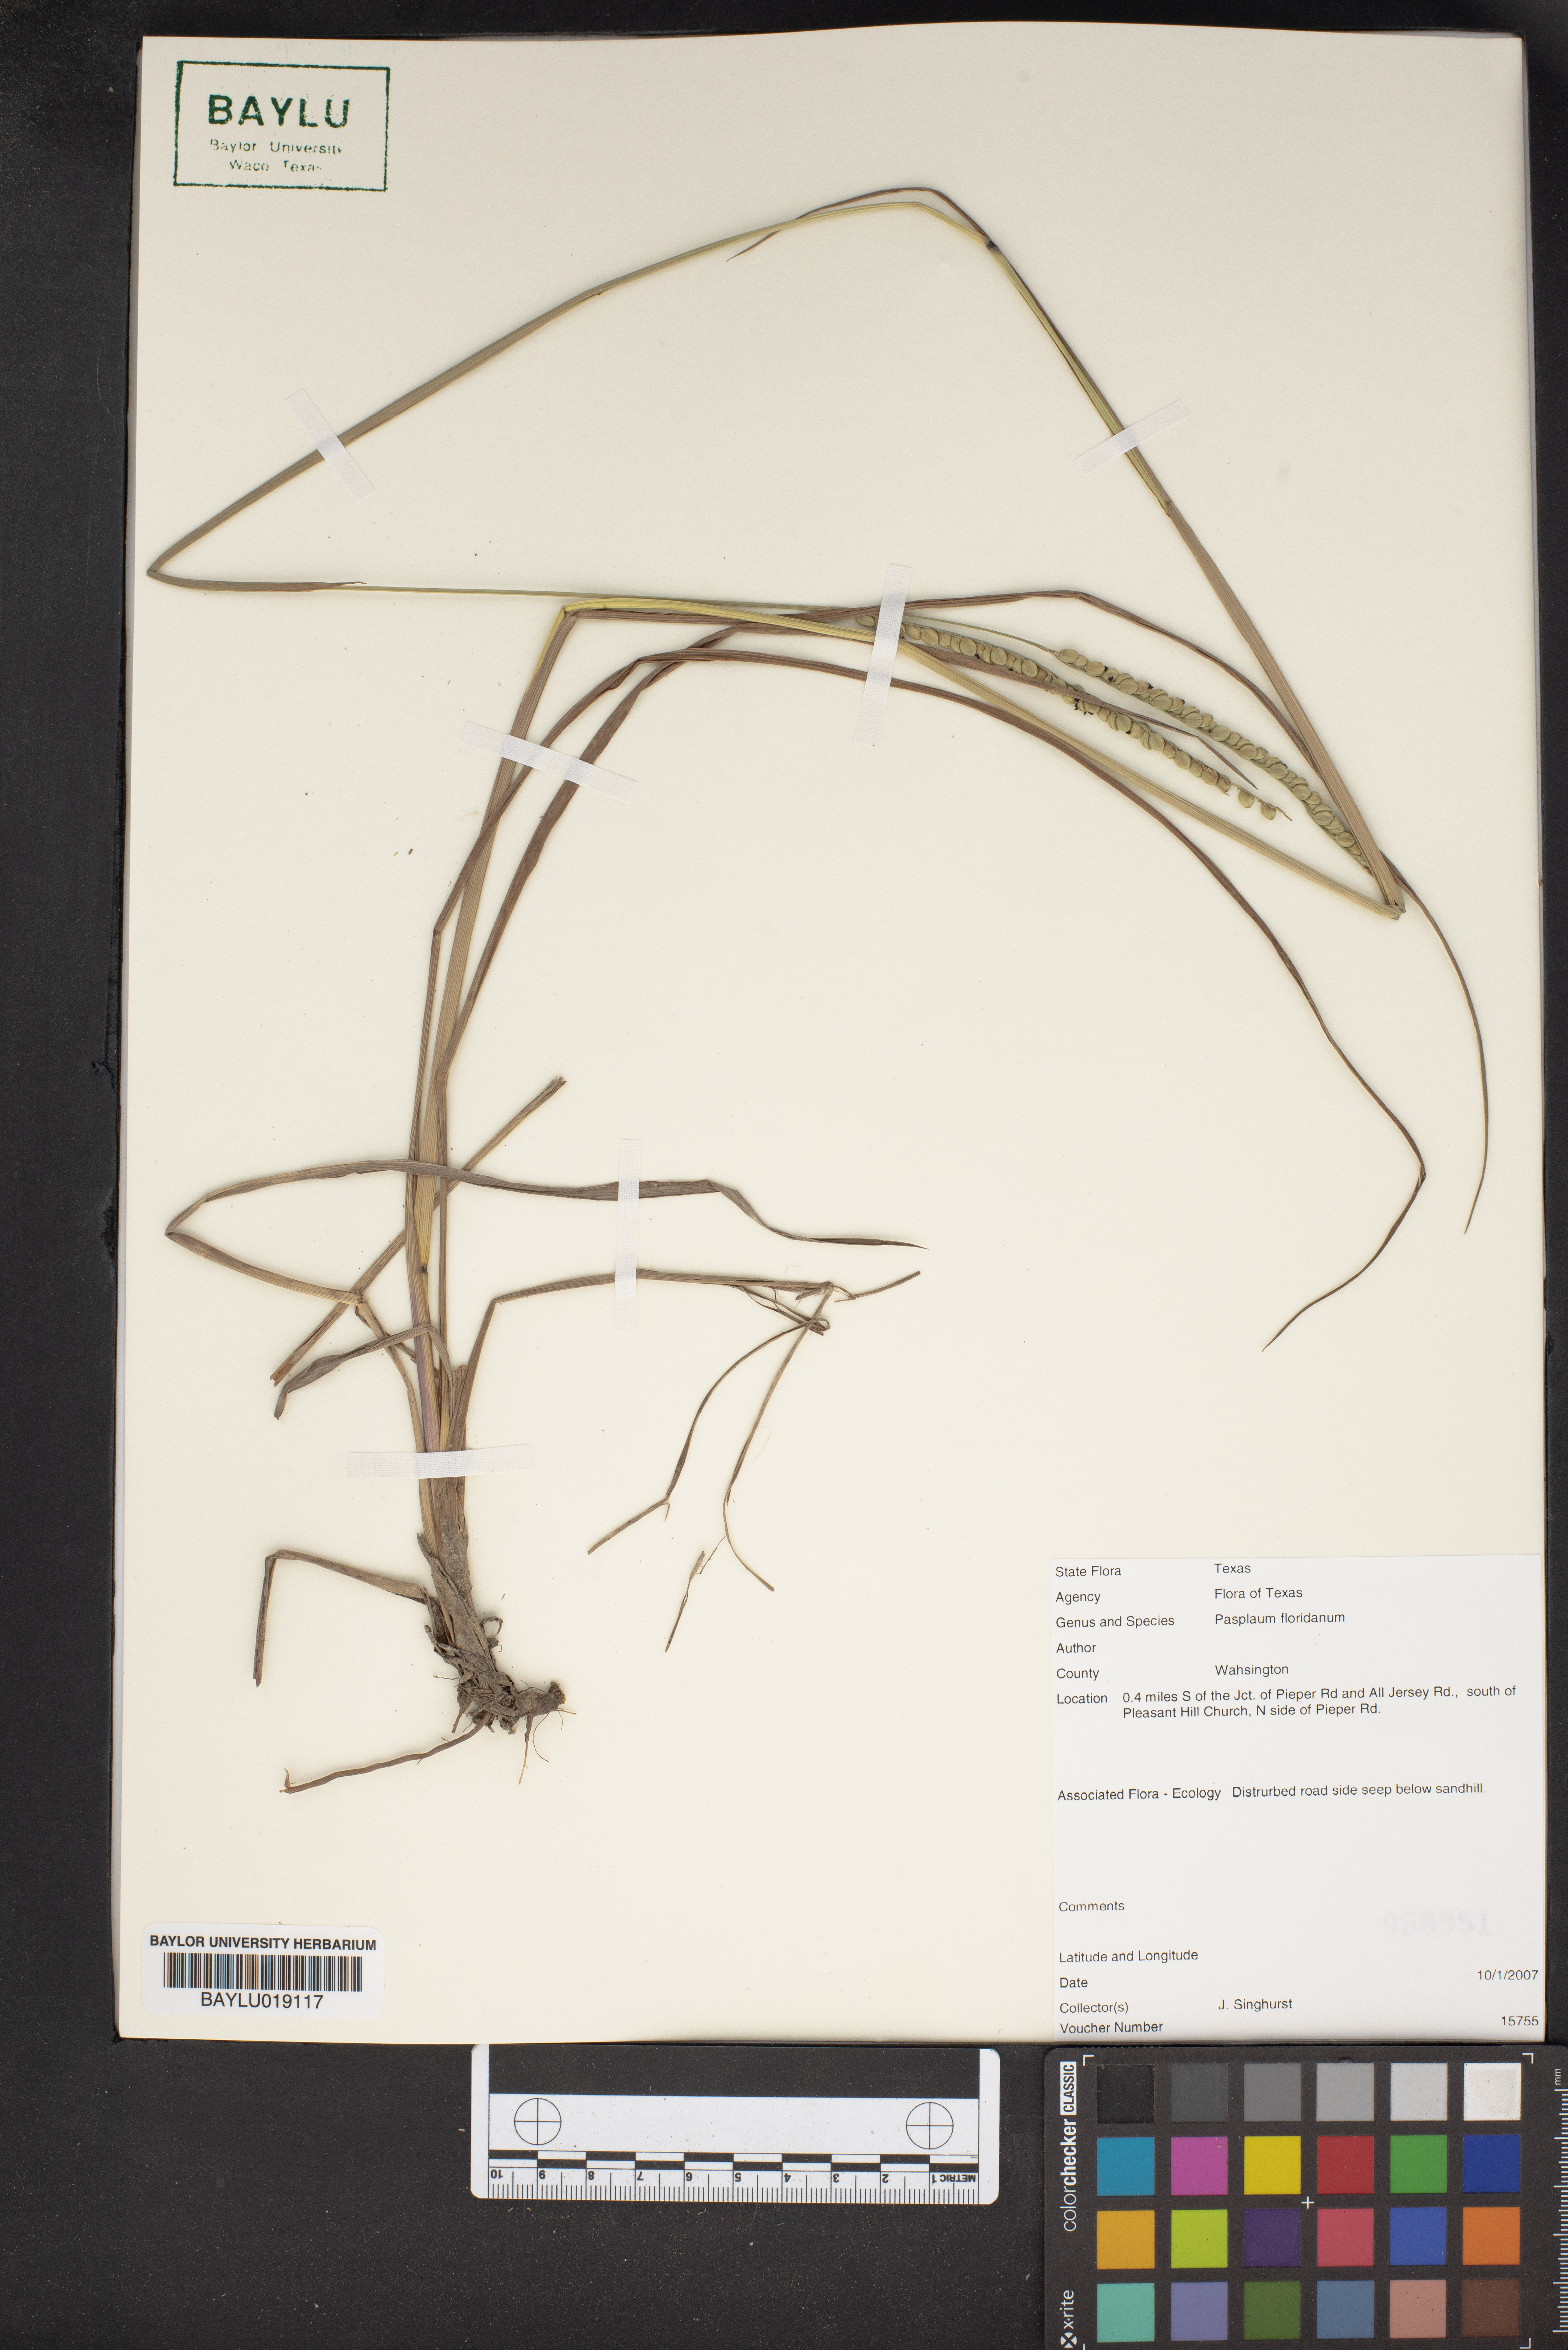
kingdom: Plantae
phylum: Tracheophyta
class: Liliopsida
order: Poales
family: Poaceae
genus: Paspalum
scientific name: Paspalum floridanum
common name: Florida paspalum
